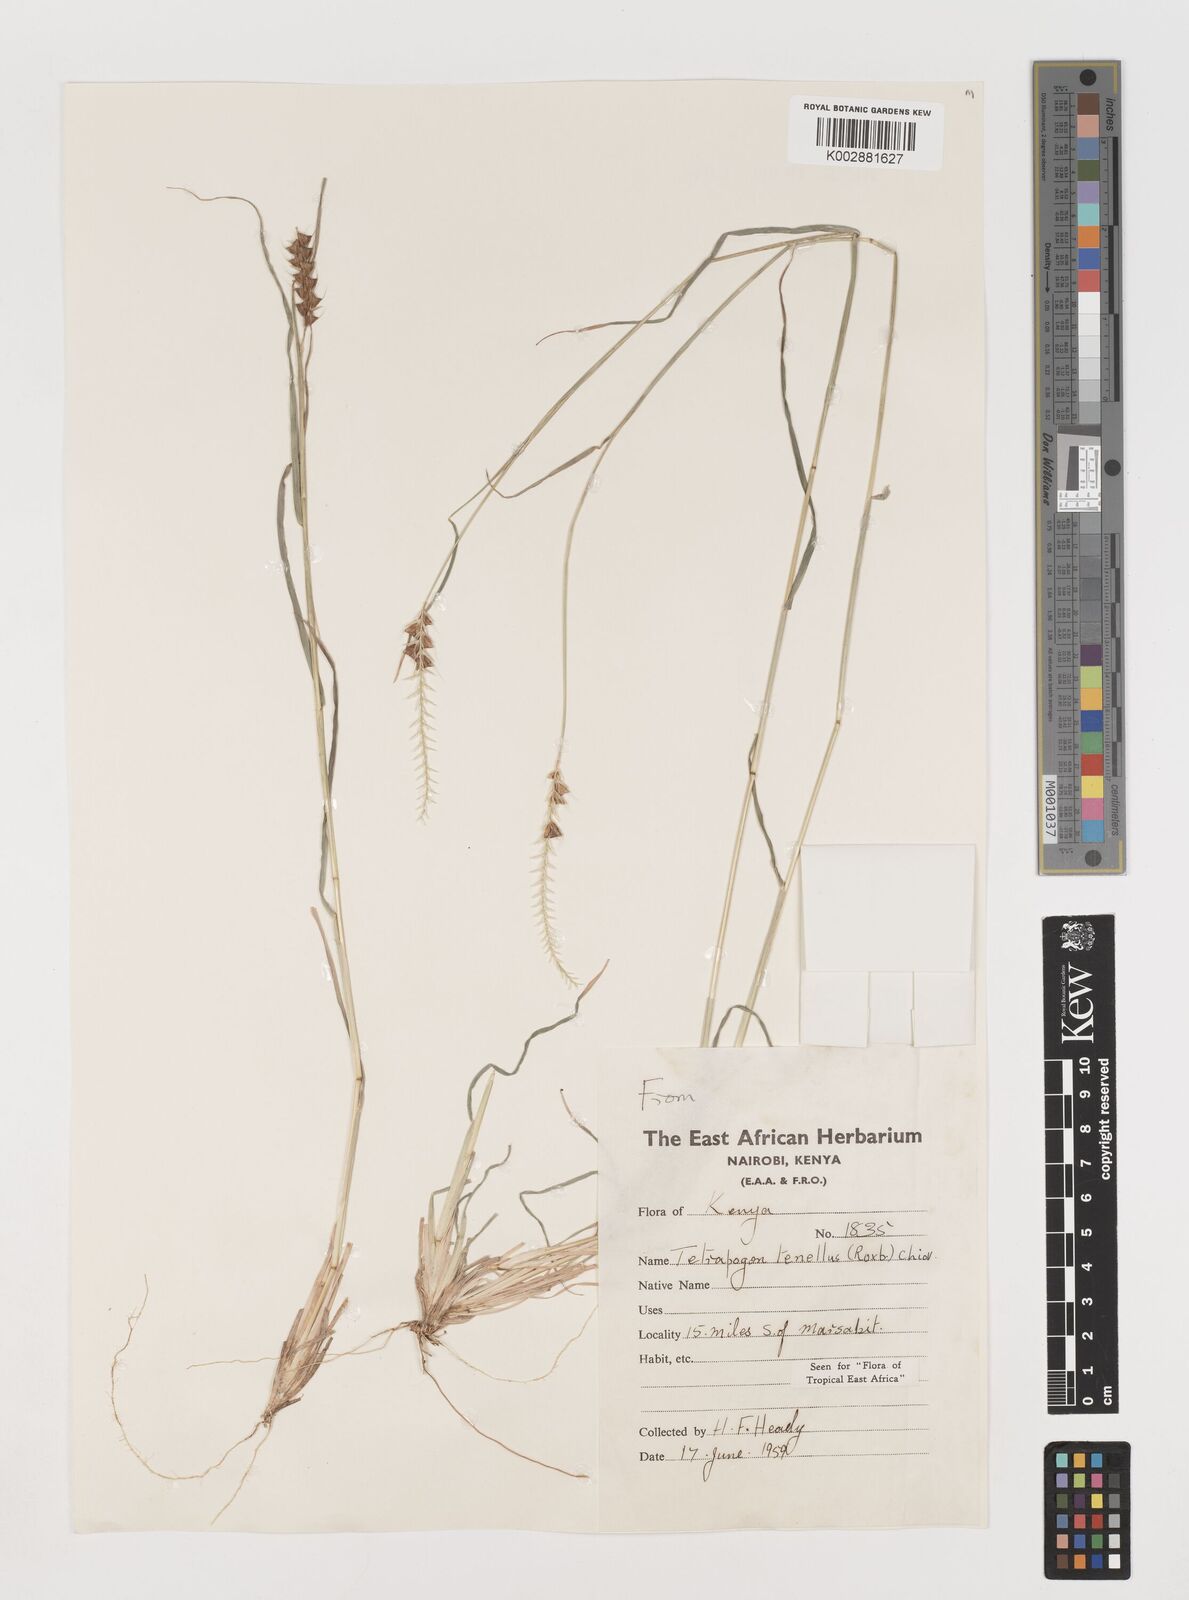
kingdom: Plantae
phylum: Tracheophyta
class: Liliopsida
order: Poales
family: Poaceae
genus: Tetrapogon
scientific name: Tetrapogon tenellus
